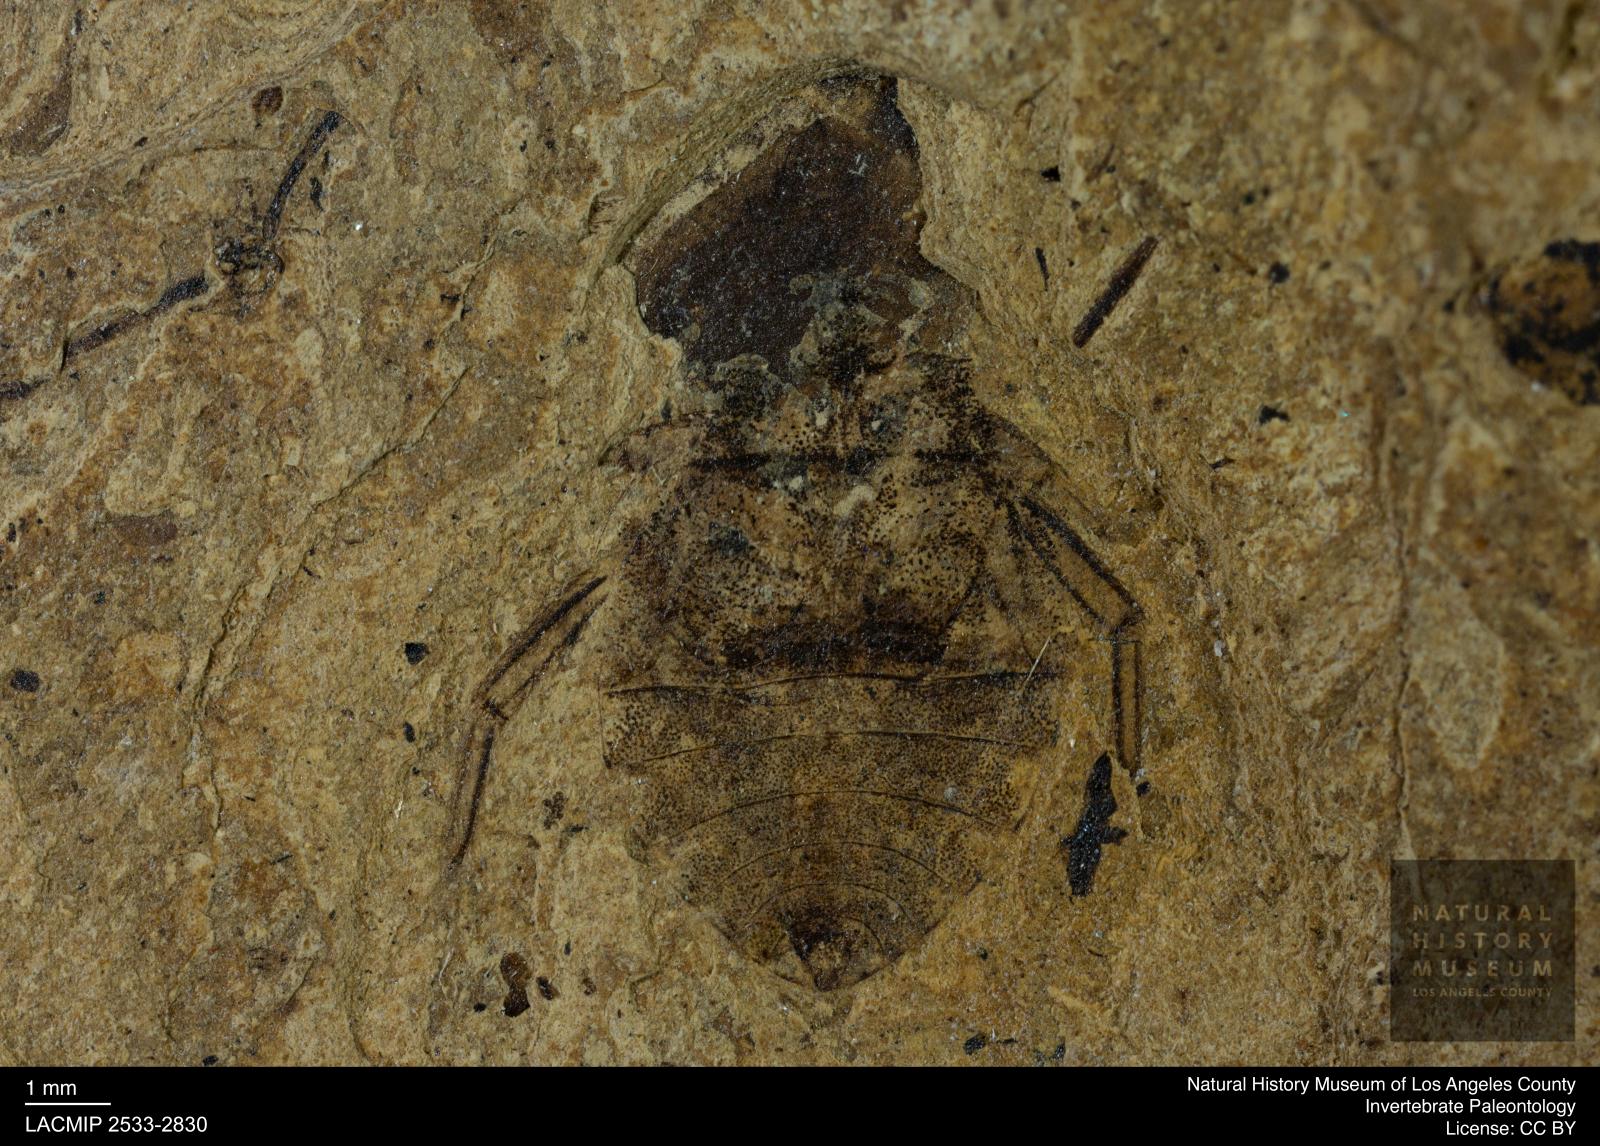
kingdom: Animalia
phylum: Arthropoda
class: Insecta
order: Hemiptera
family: Naucoridae
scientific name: Naucoridae
